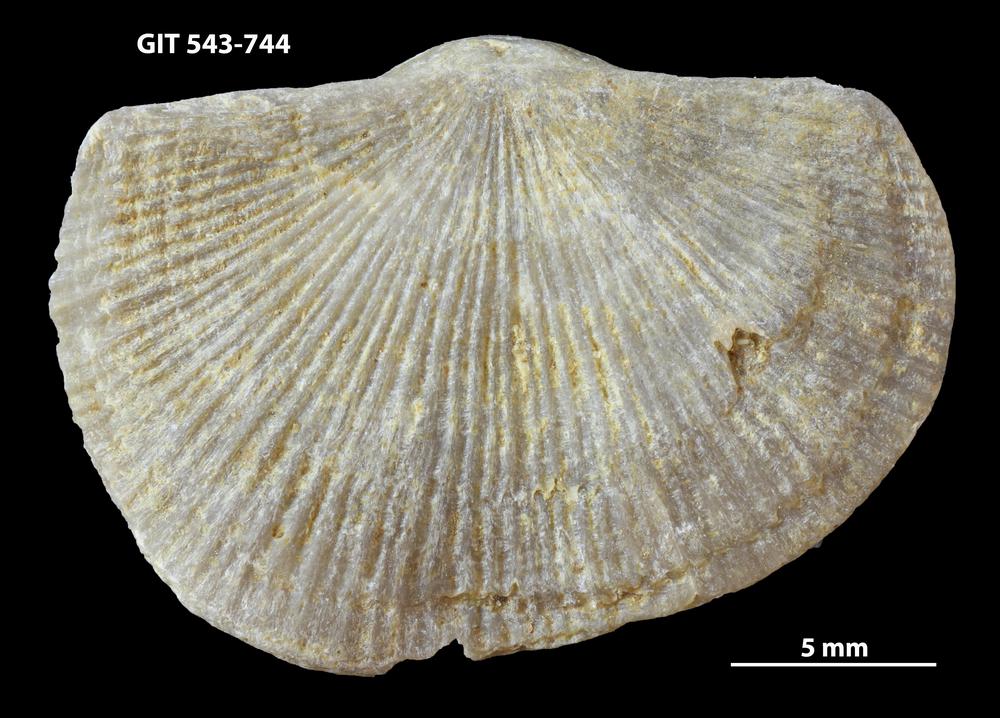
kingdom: Animalia
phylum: Brachiopoda
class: Rhynchonellata
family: Clitambonitidae
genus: Vellamo
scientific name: Vellamo oandoensis
